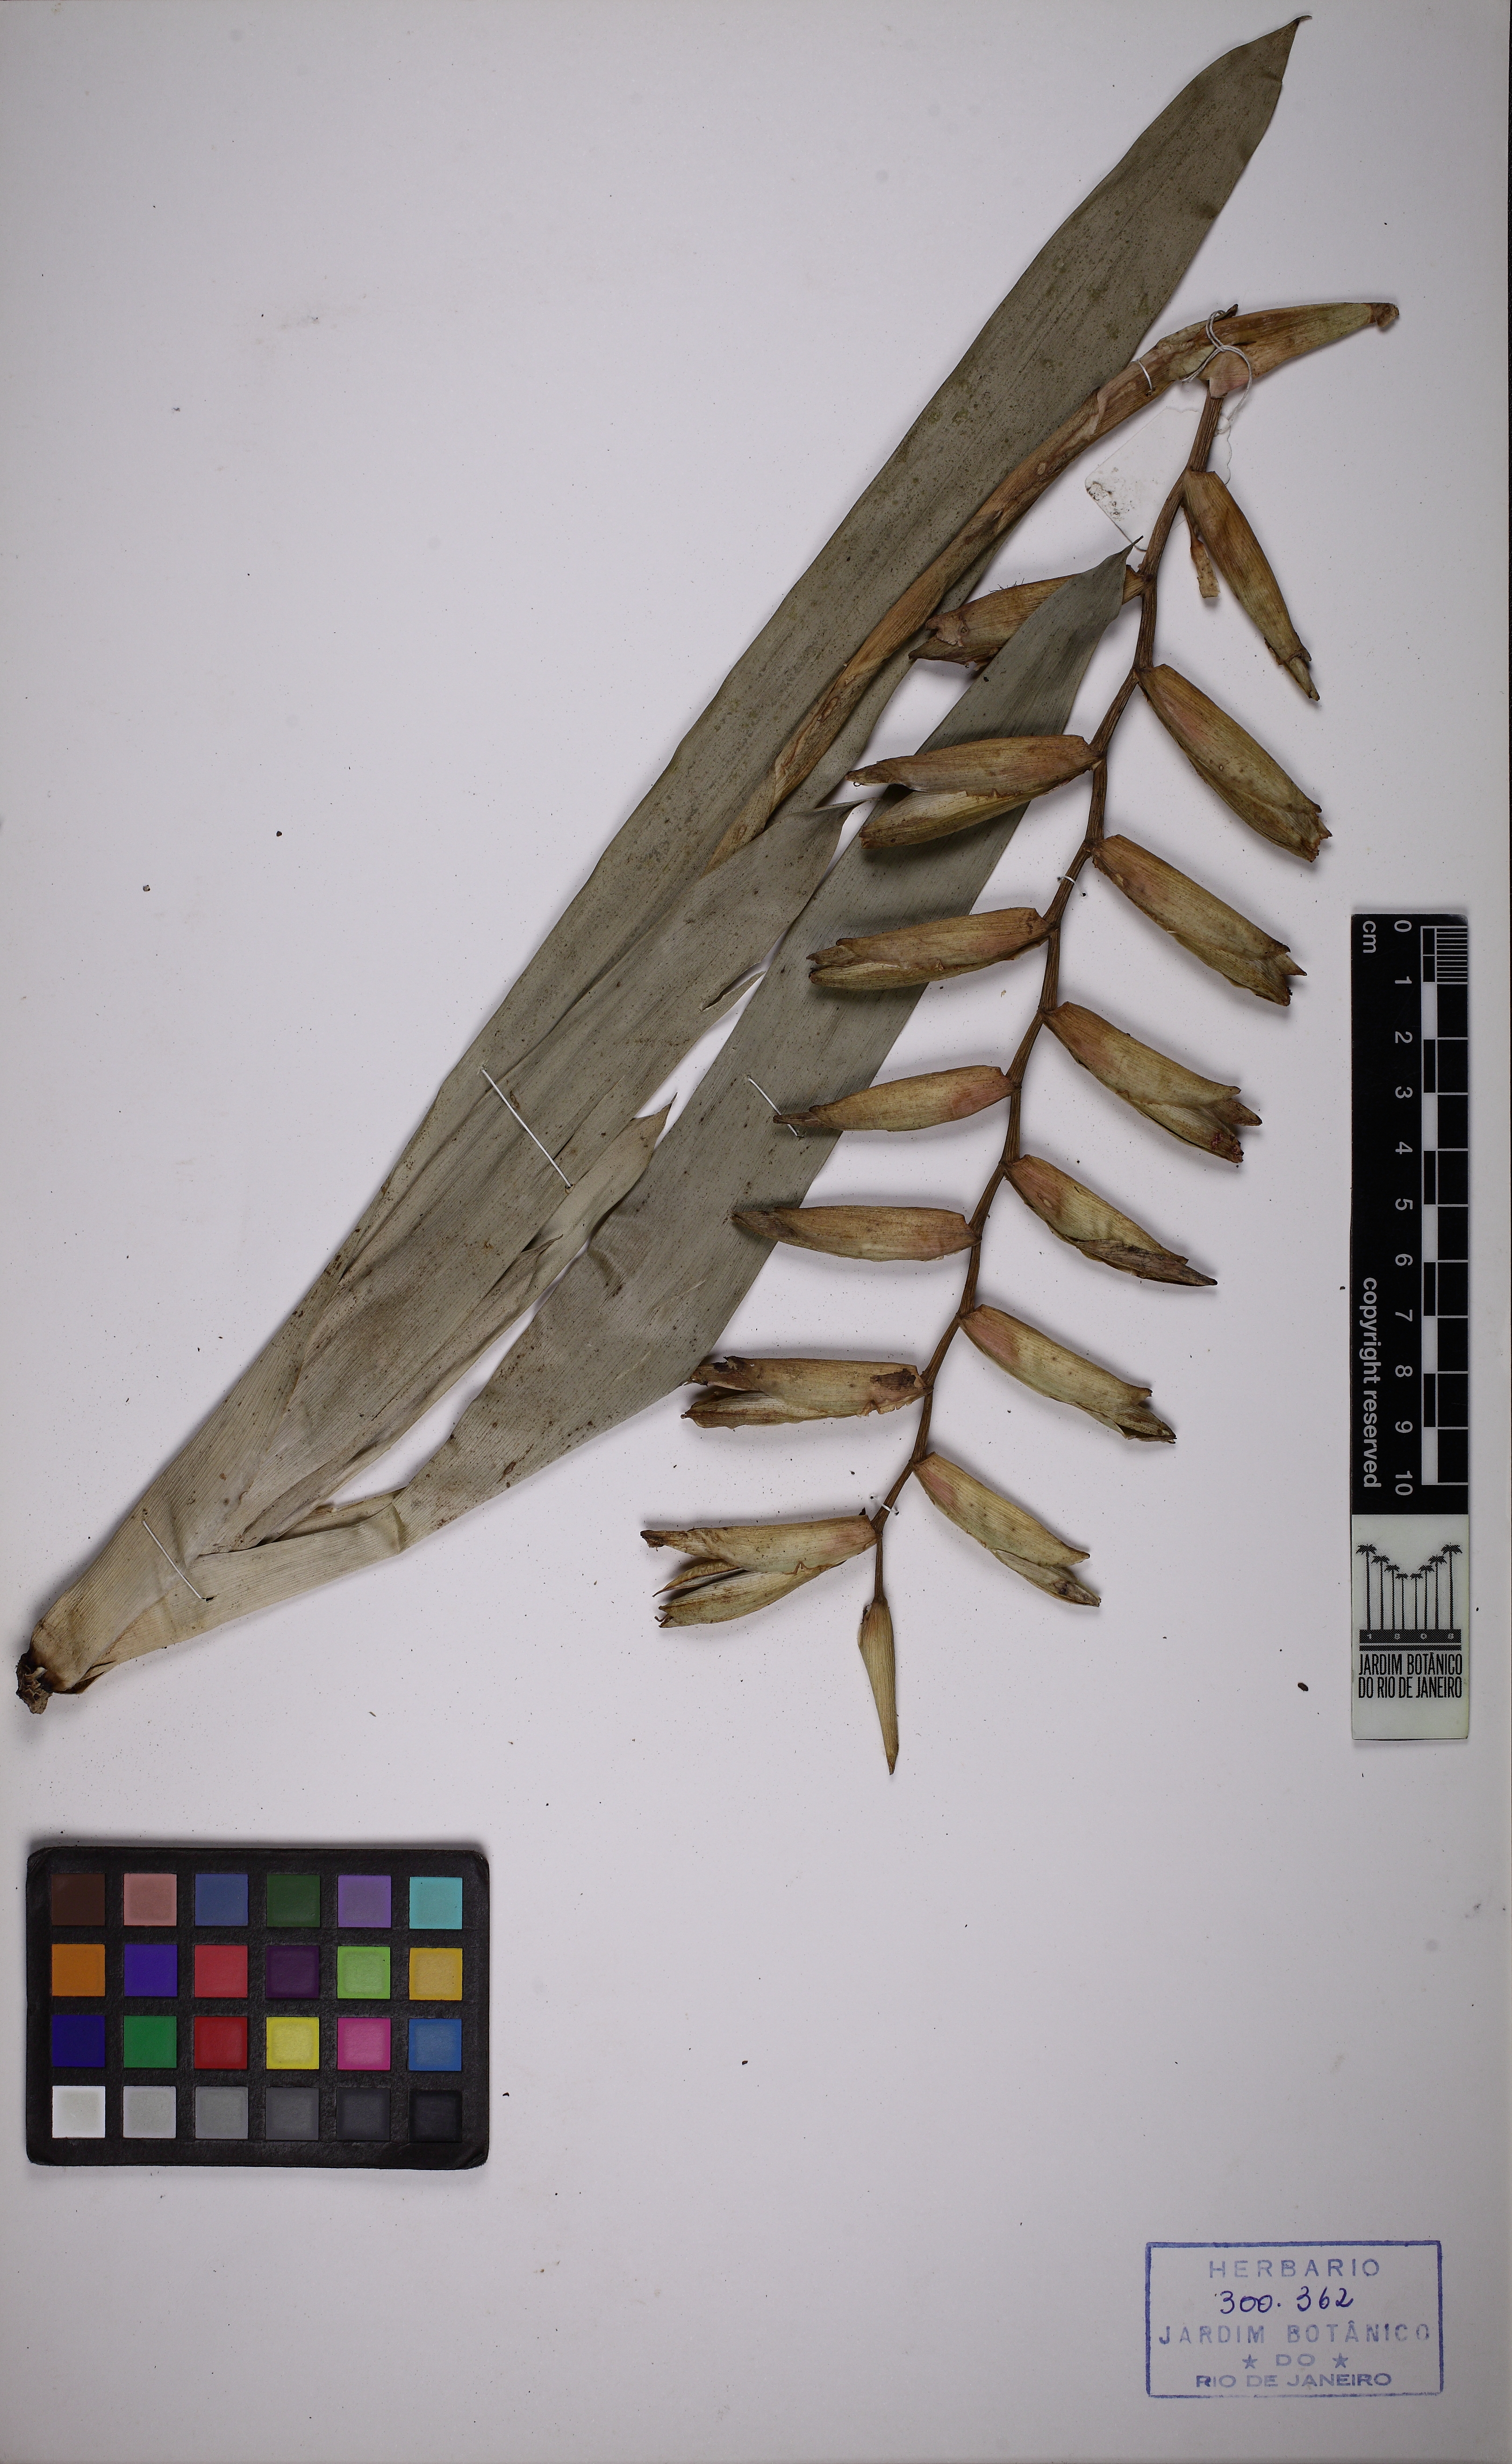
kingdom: Plantae
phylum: Tracheophyta
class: Liliopsida
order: Poales
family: Bromeliaceae
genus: Vriesea
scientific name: Vriesea psittacina
